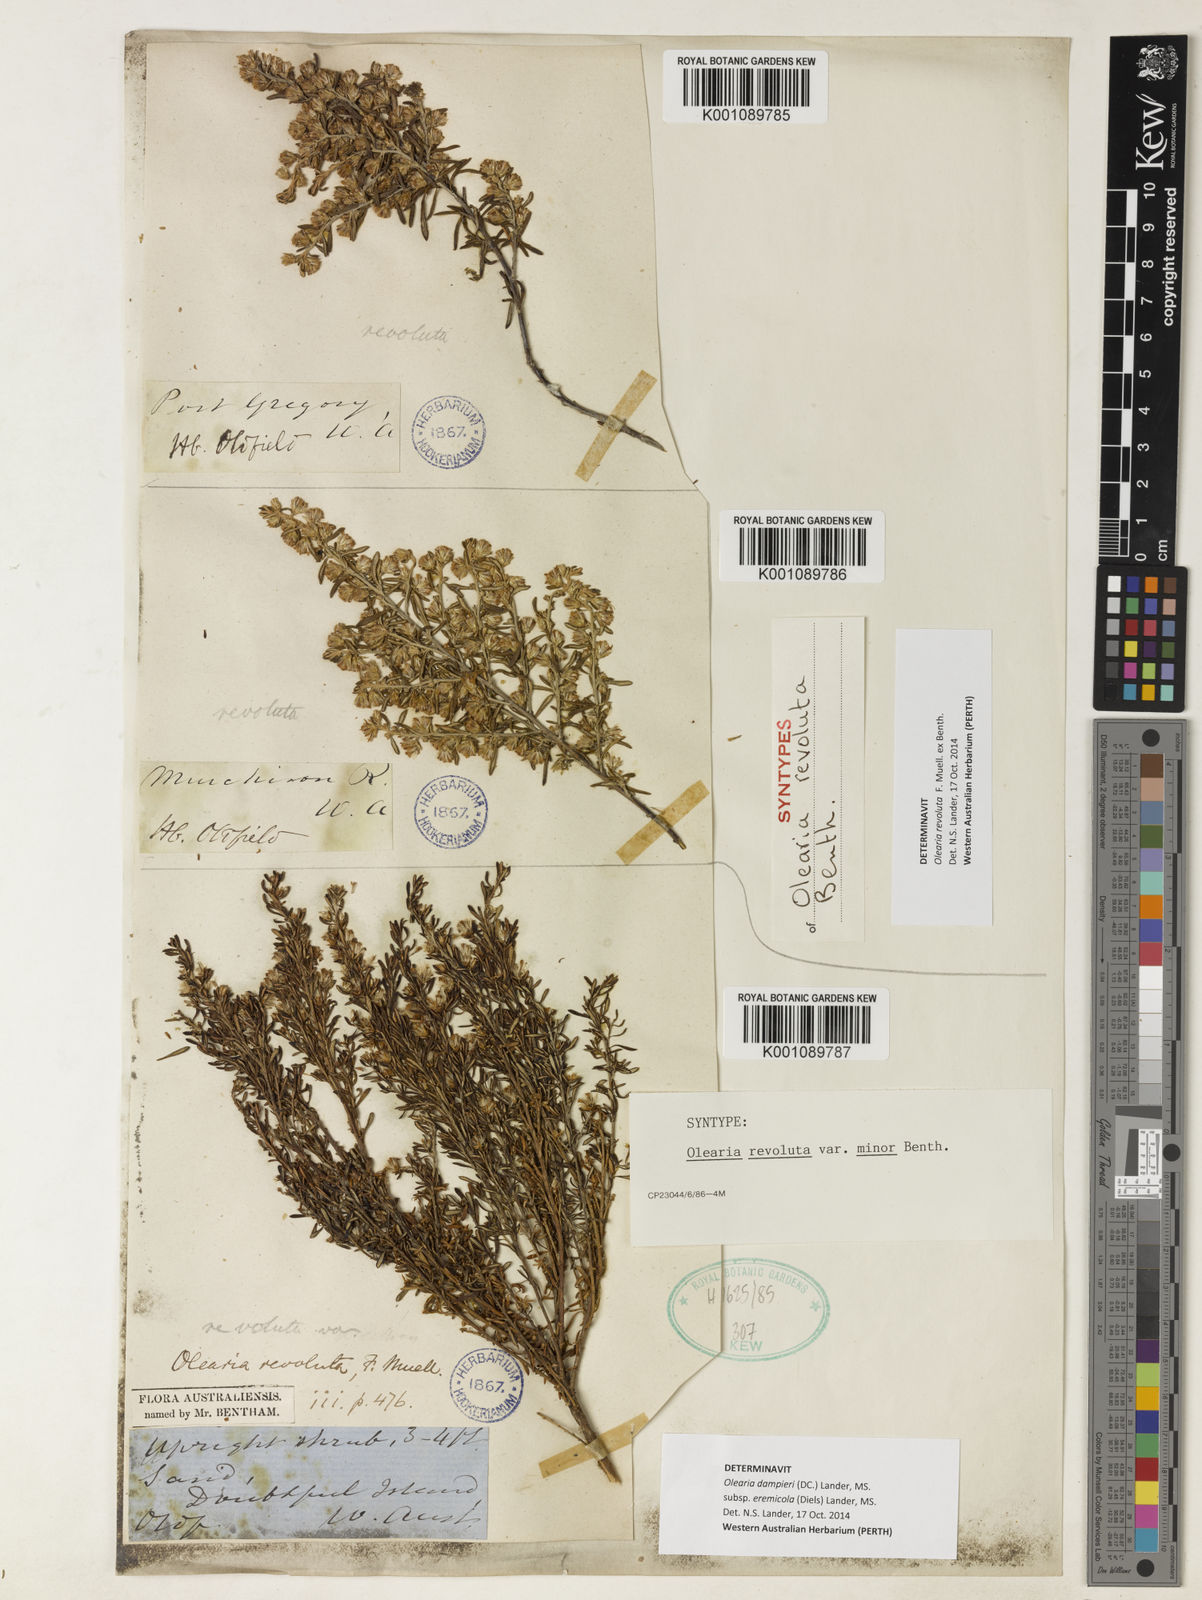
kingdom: Plantae
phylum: Tracheophyta
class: Magnoliopsida
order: Asterales
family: Asteraceae
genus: Olearia
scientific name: Olearia
